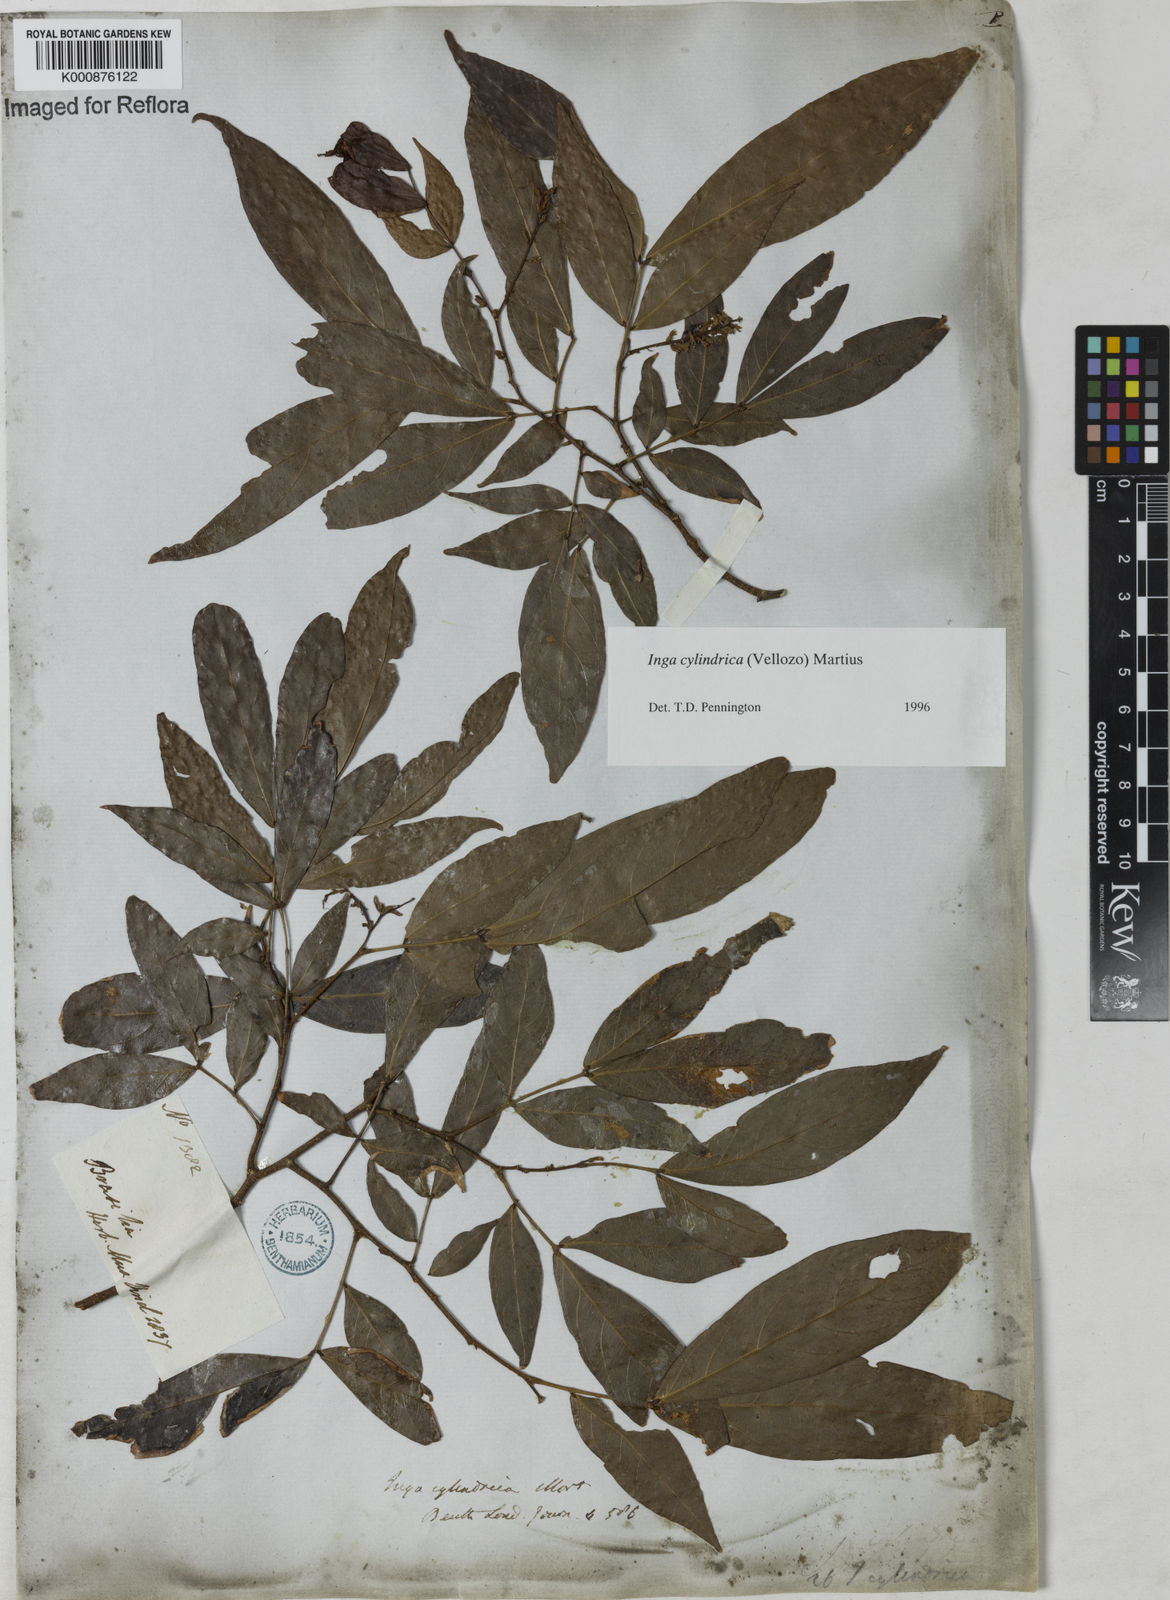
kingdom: Plantae
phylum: Tracheophyta
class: Magnoliopsida
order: Fabales
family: Fabaceae
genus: Inga
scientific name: Inga cylindrica
